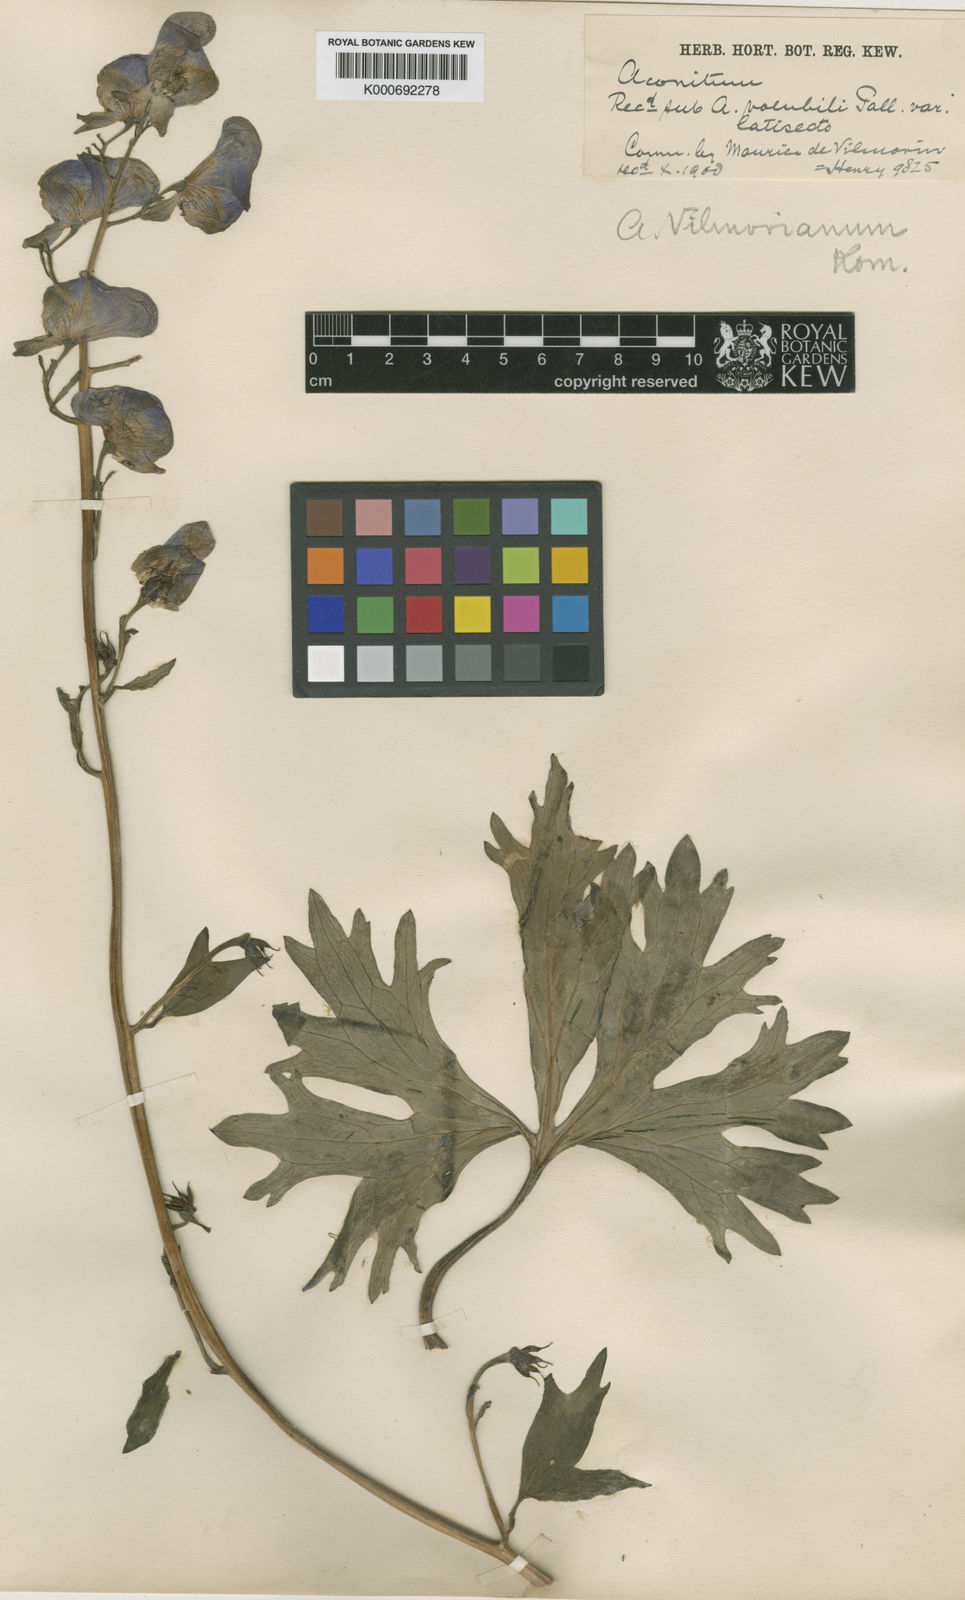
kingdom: Plantae
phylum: Tracheophyta
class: Magnoliopsida
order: Ranunculales
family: Ranunculaceae
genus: Aconitum
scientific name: Aconitum vilmorinianum
